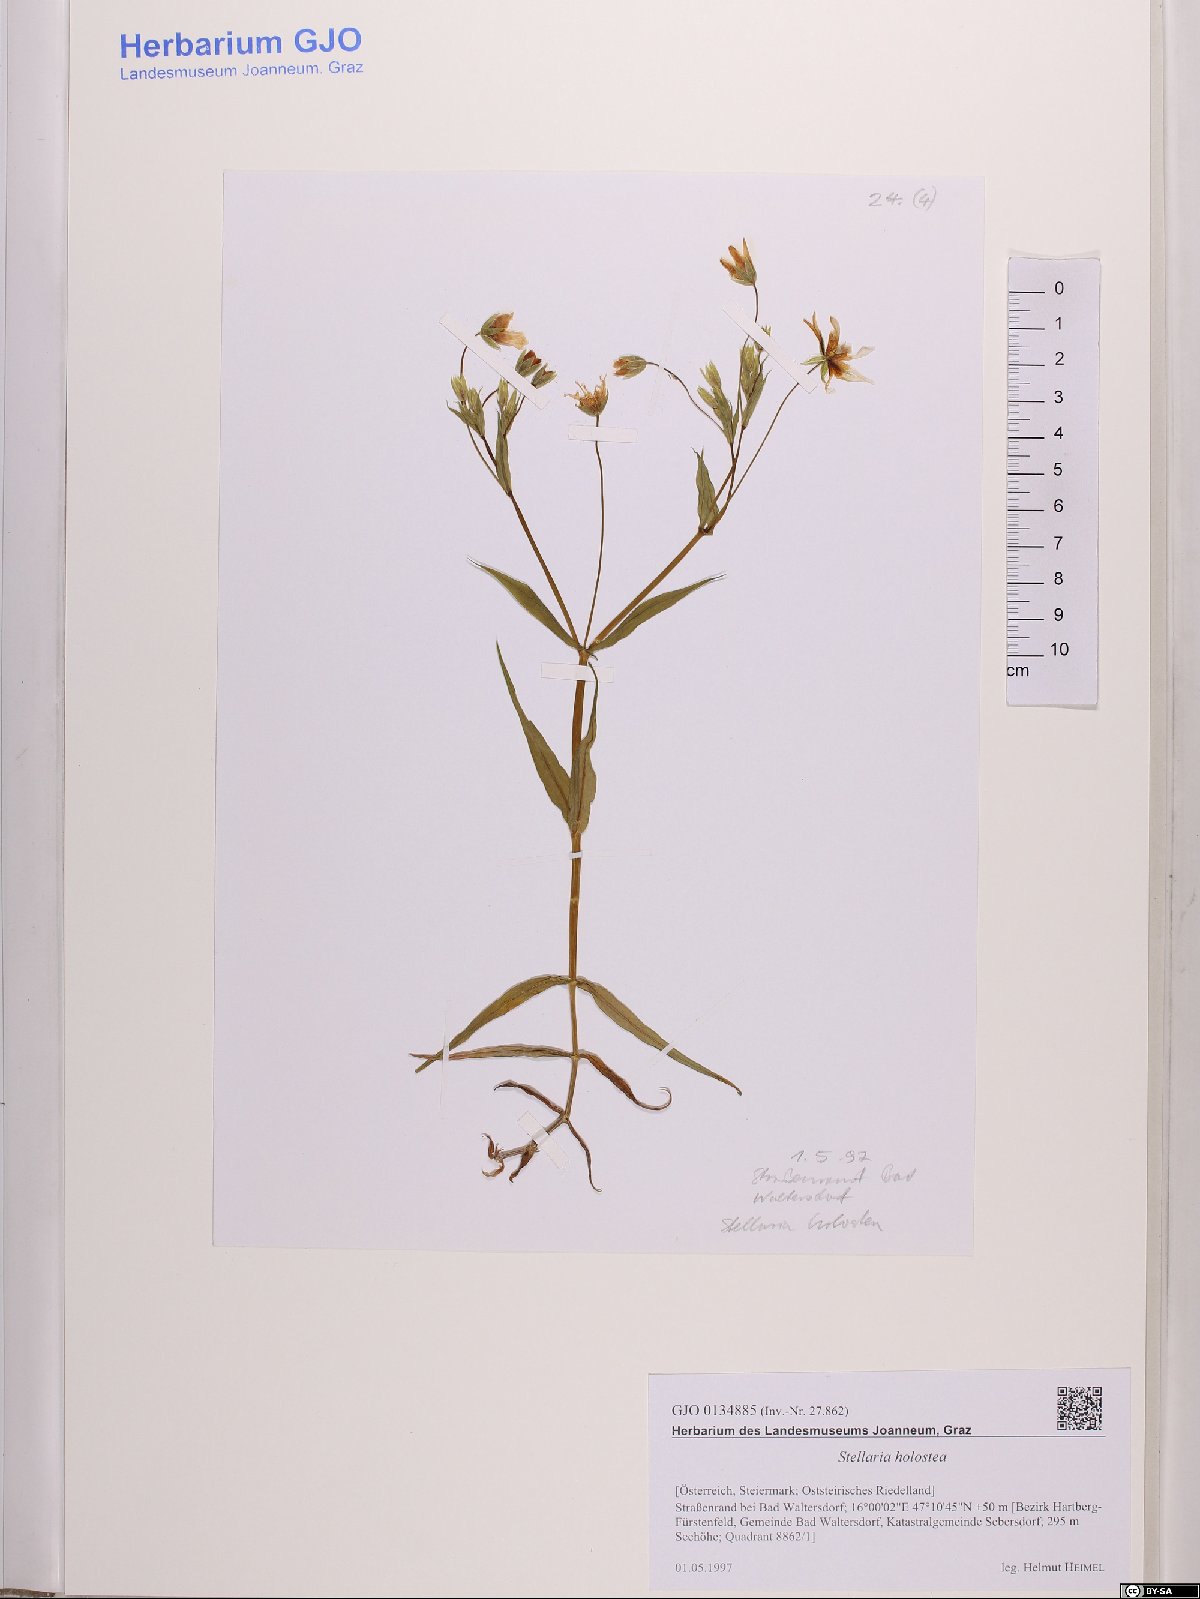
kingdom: Plantae
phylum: Tracheophyta
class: Magnoliopsida
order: Caryophyllales
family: Caryophyllaceae
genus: Rabelera
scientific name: Rabelera holostea
